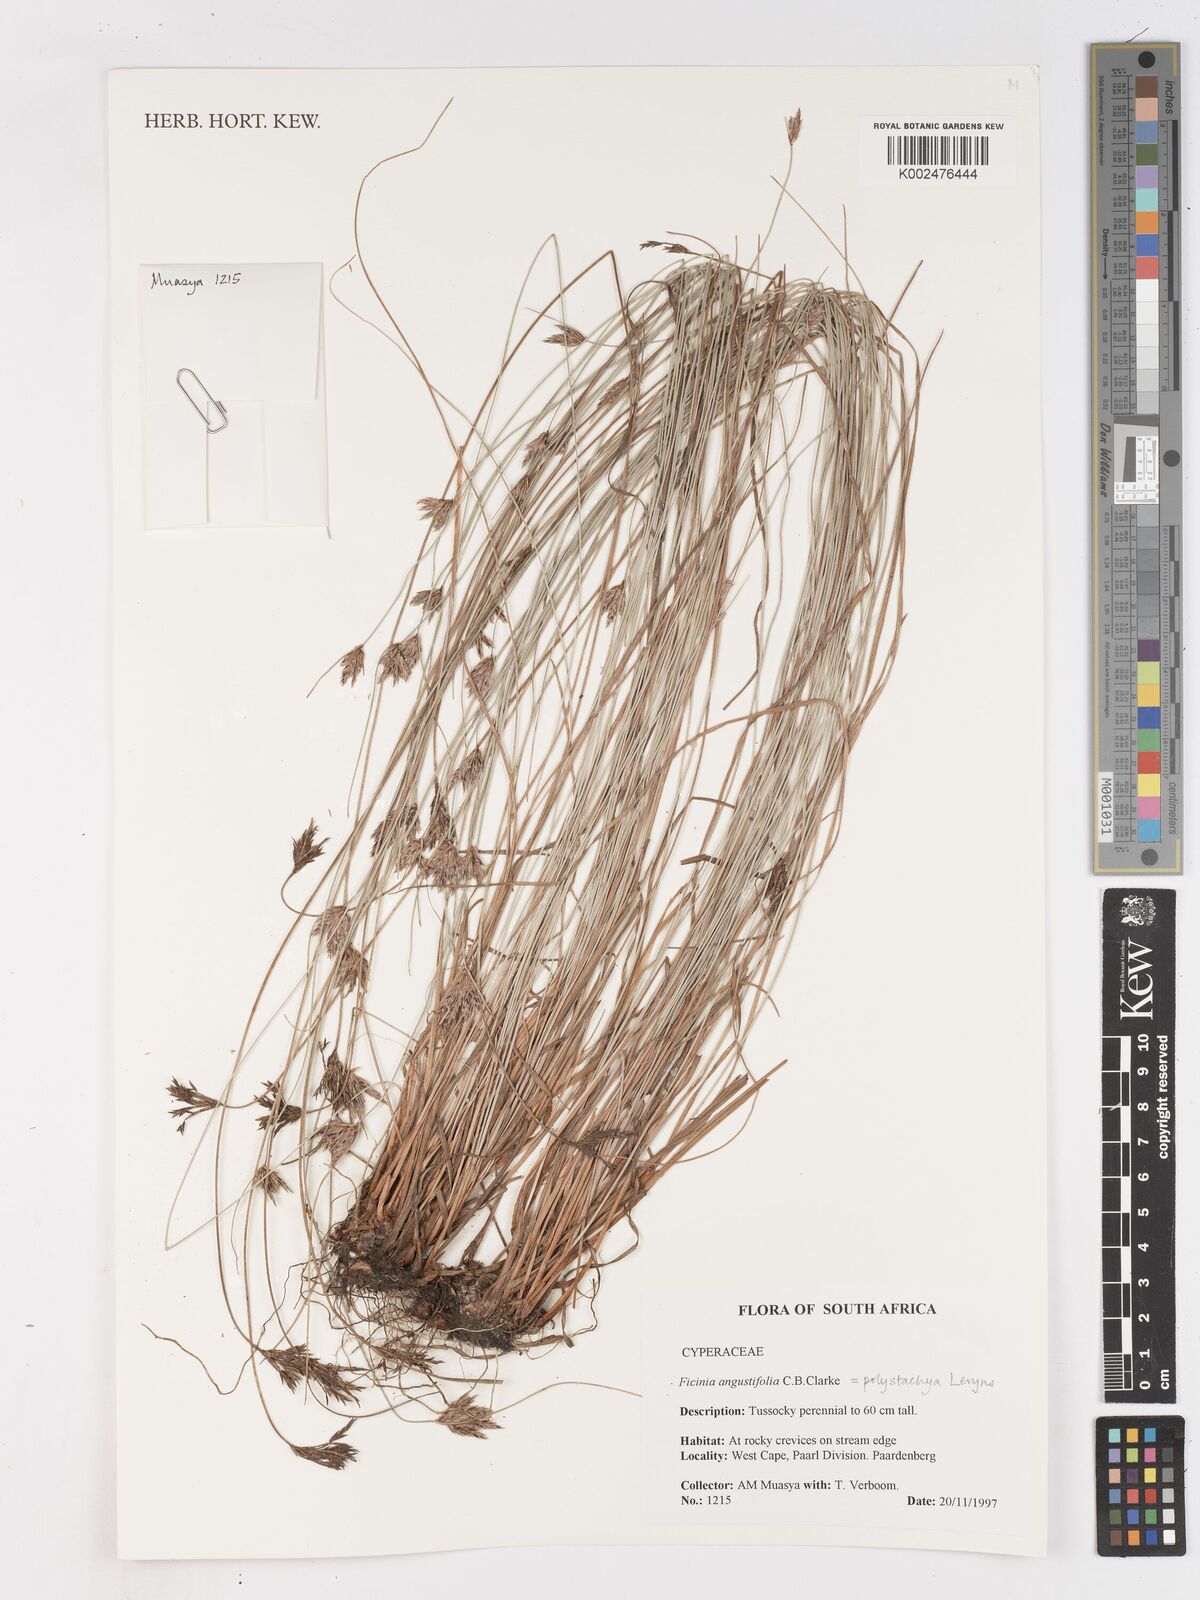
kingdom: Plantae
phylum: Tracheophyta
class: Liliopsida
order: Poales
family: Cyperaceae
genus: Ficinia
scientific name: Ficinia polystachya
